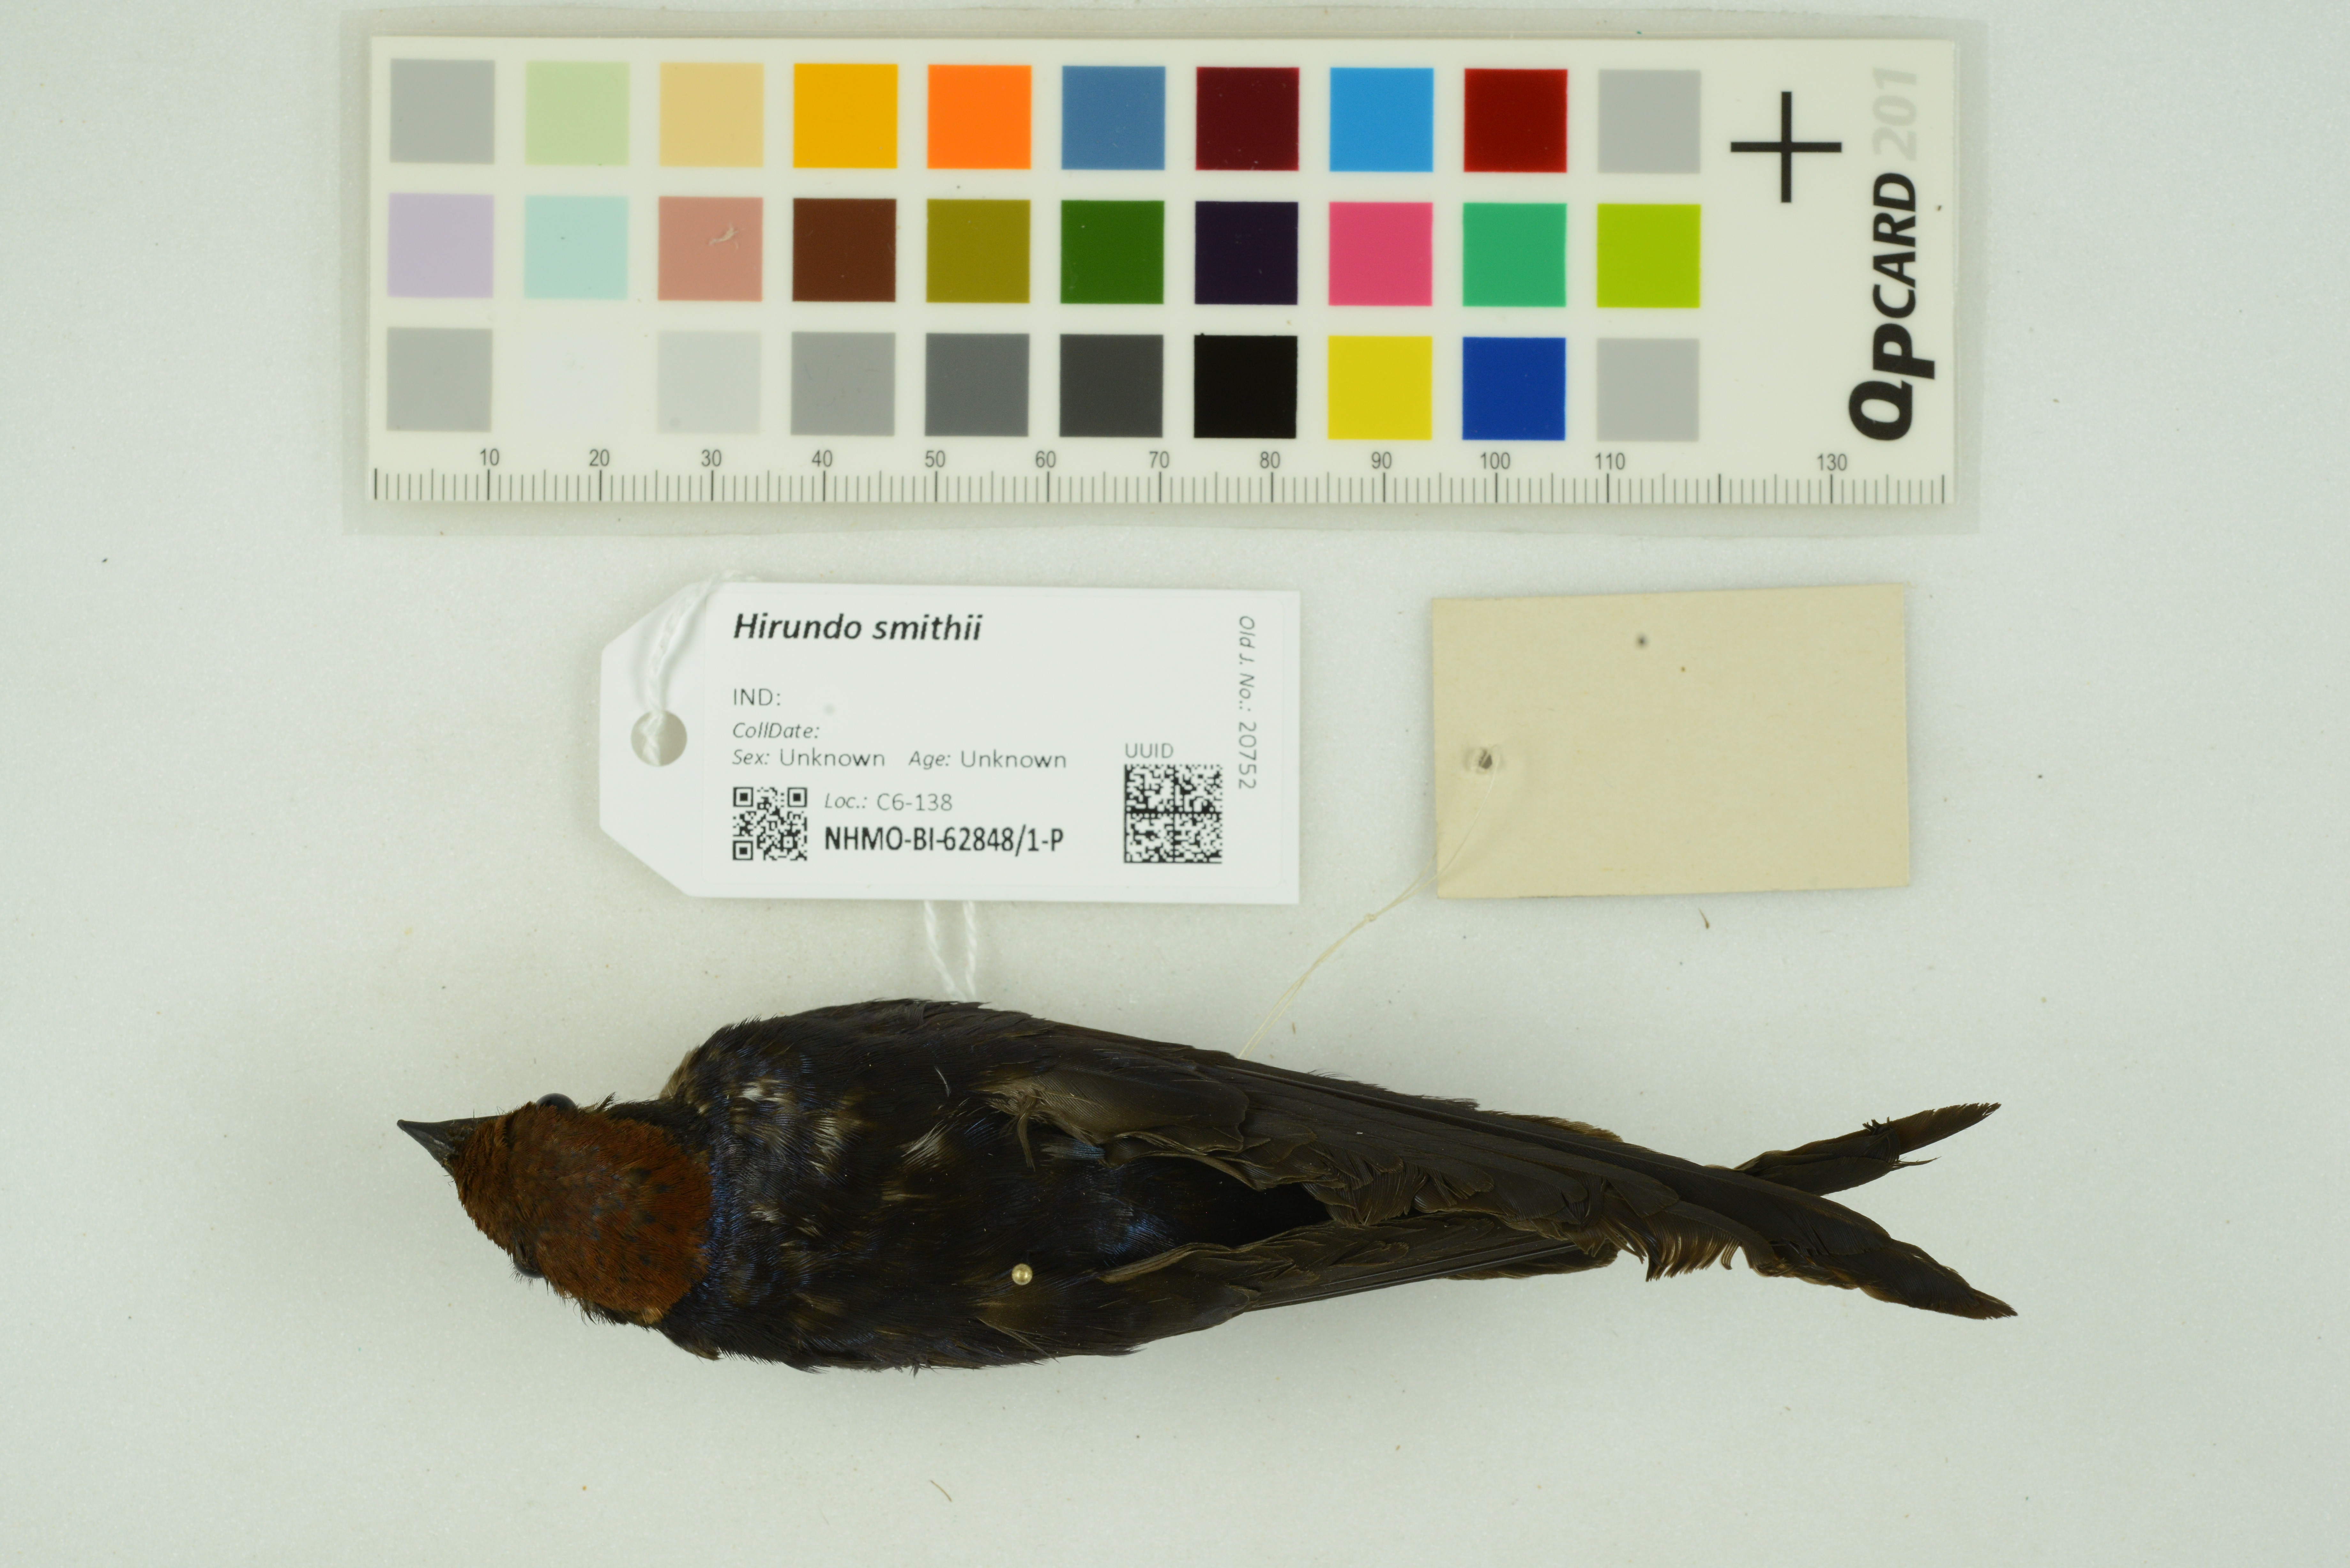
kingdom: Animalia
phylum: Chordata
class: Aves
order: Passeriformes
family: Hirundinidae
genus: Hirundo
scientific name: Hirundo smithii
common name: Wire-tailed swallow
